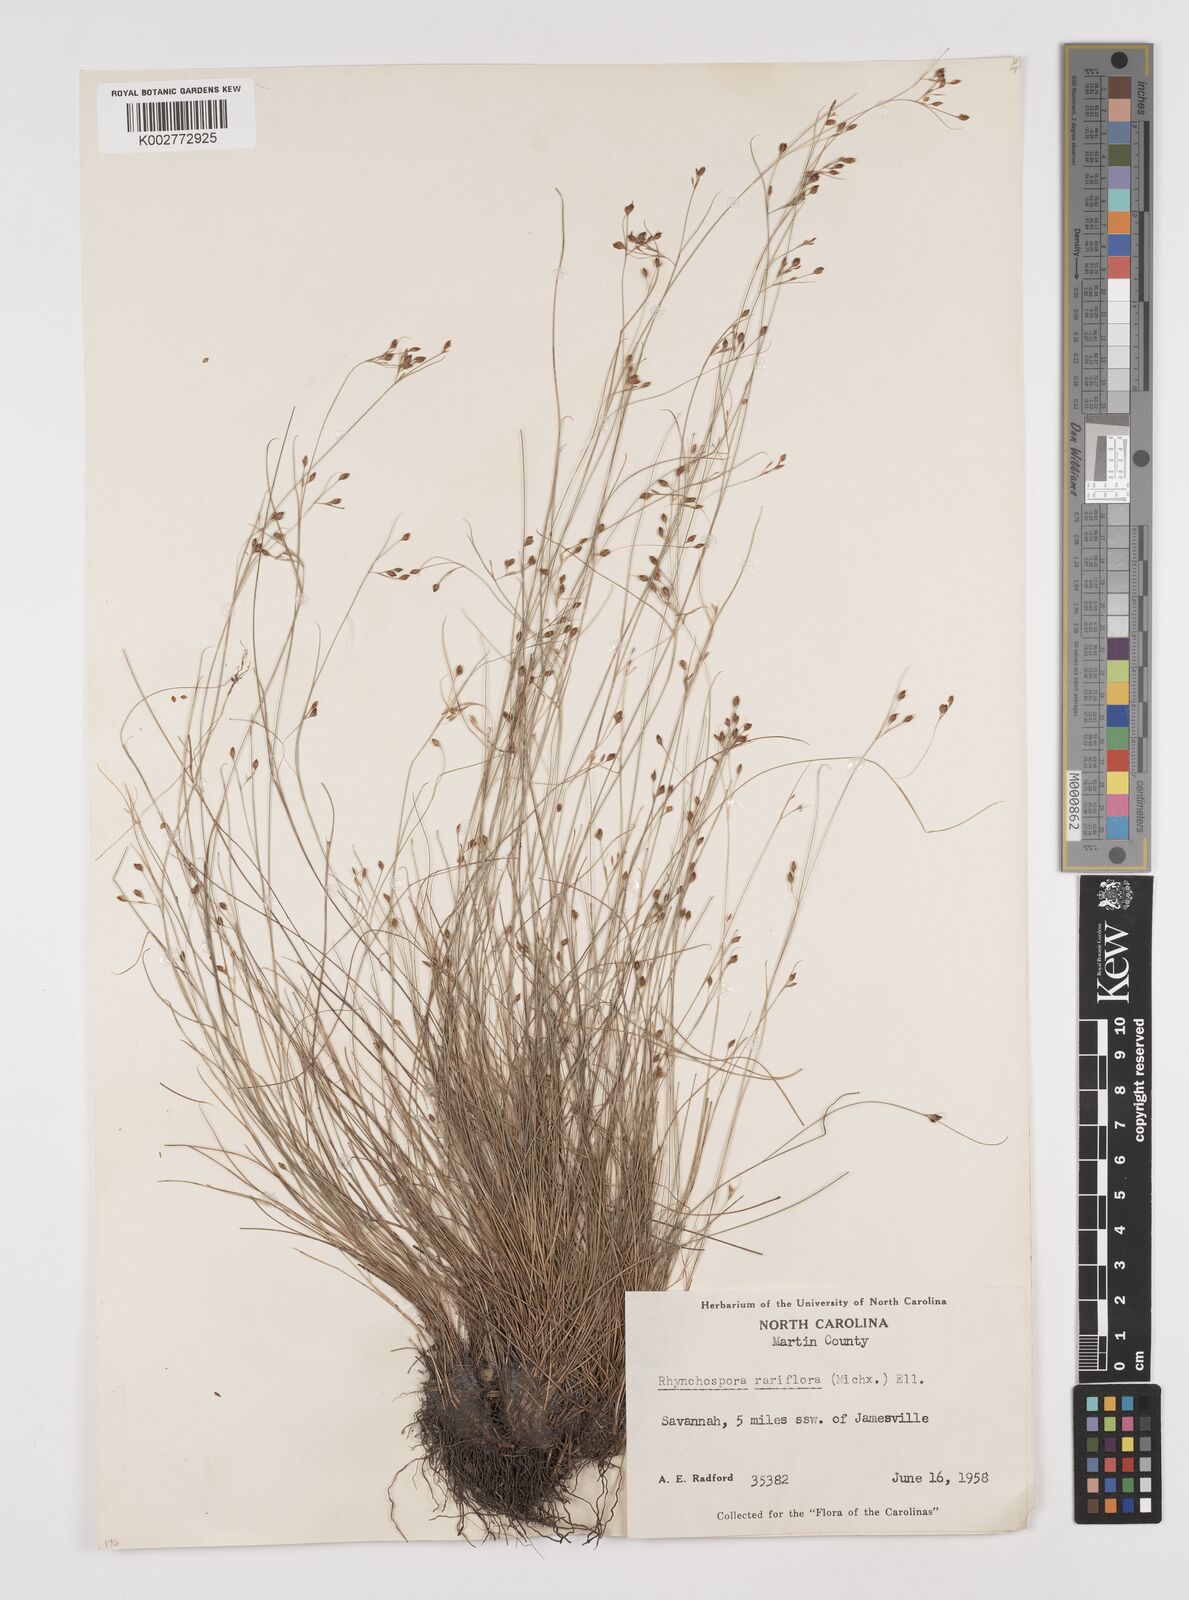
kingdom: Plantae
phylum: Tracheophyta
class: Liliopsida
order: Poales
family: Cyperaceae
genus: Rhynchospora
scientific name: Rhynchospora rariflora
